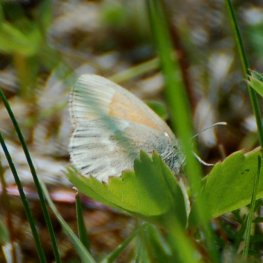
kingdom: Animalia
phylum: Arthropoda
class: Insecta
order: Lepidoptera
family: Nymphalidae
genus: Coenonympha
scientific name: Coenonympha tullia
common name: Large Heath
